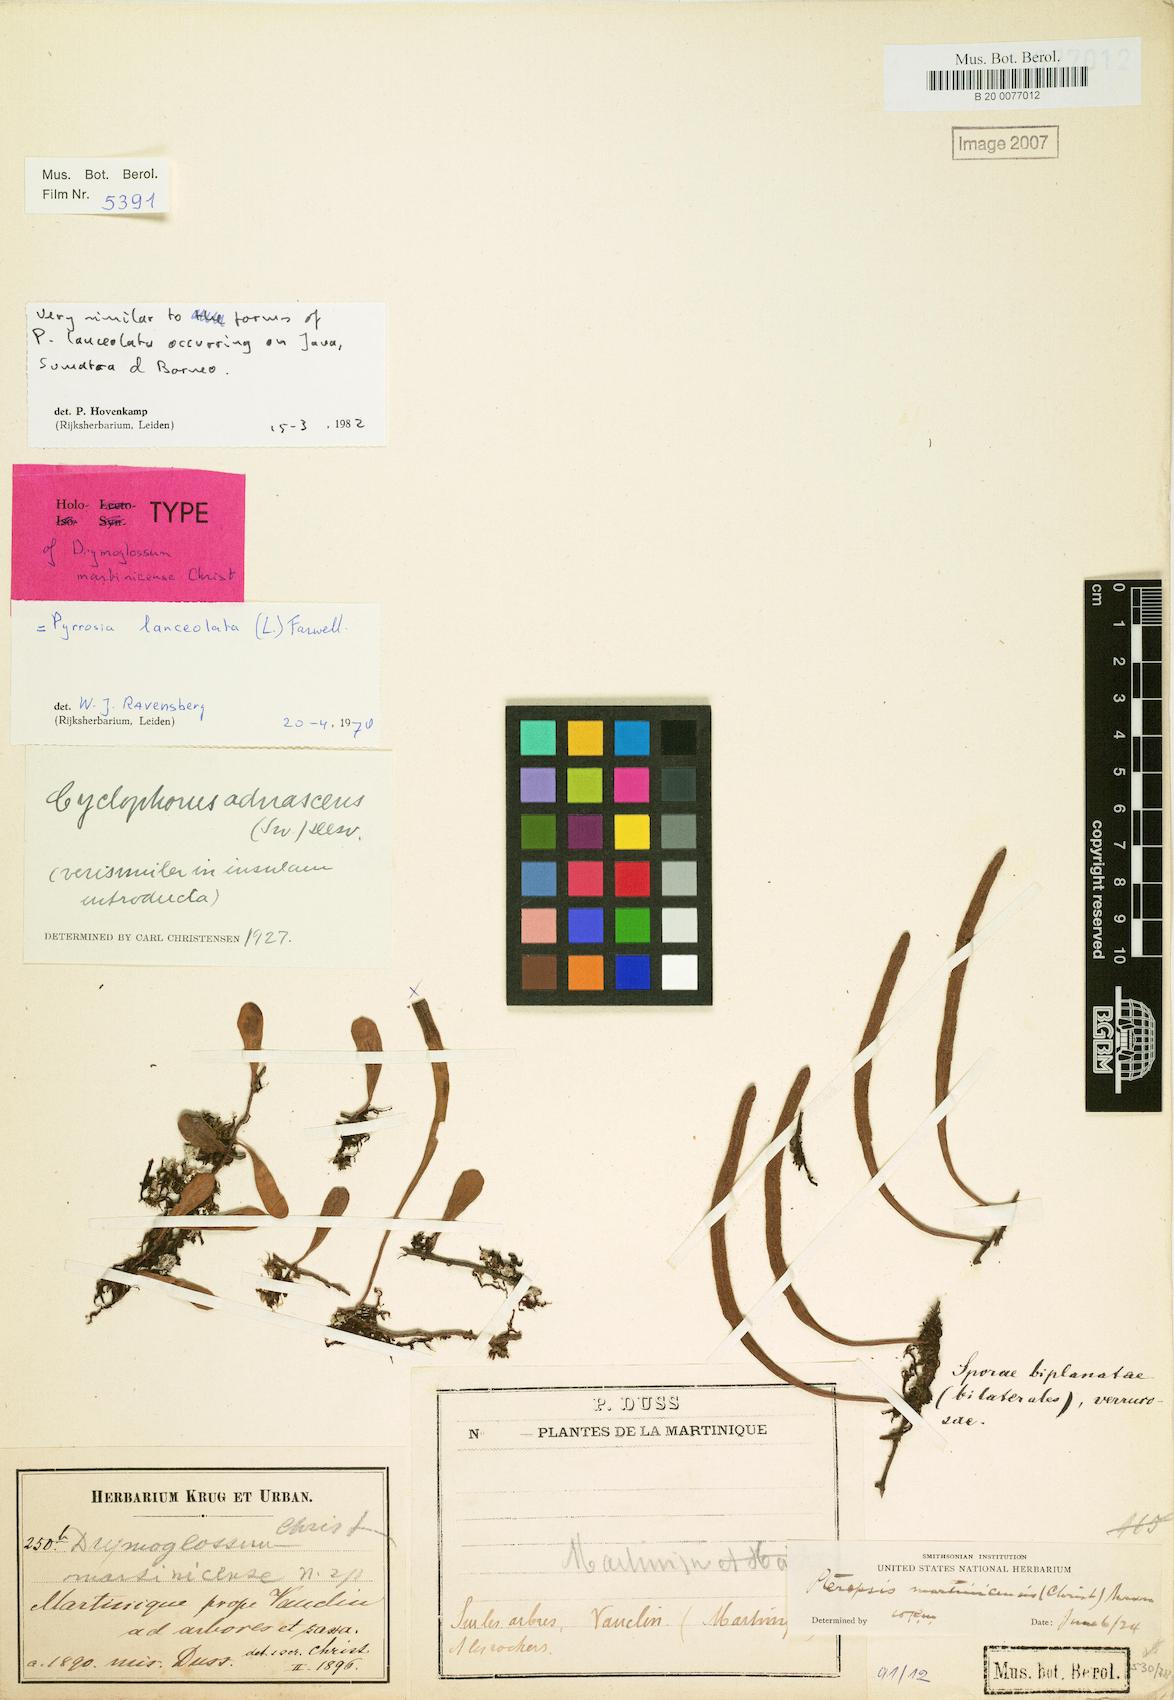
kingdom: Plantae
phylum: Tracheophyta
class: Polypodiopsida
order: Polypodiales
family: Polypodiaceae
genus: Pyrrosia
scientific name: Pyrrosia lanceolata
